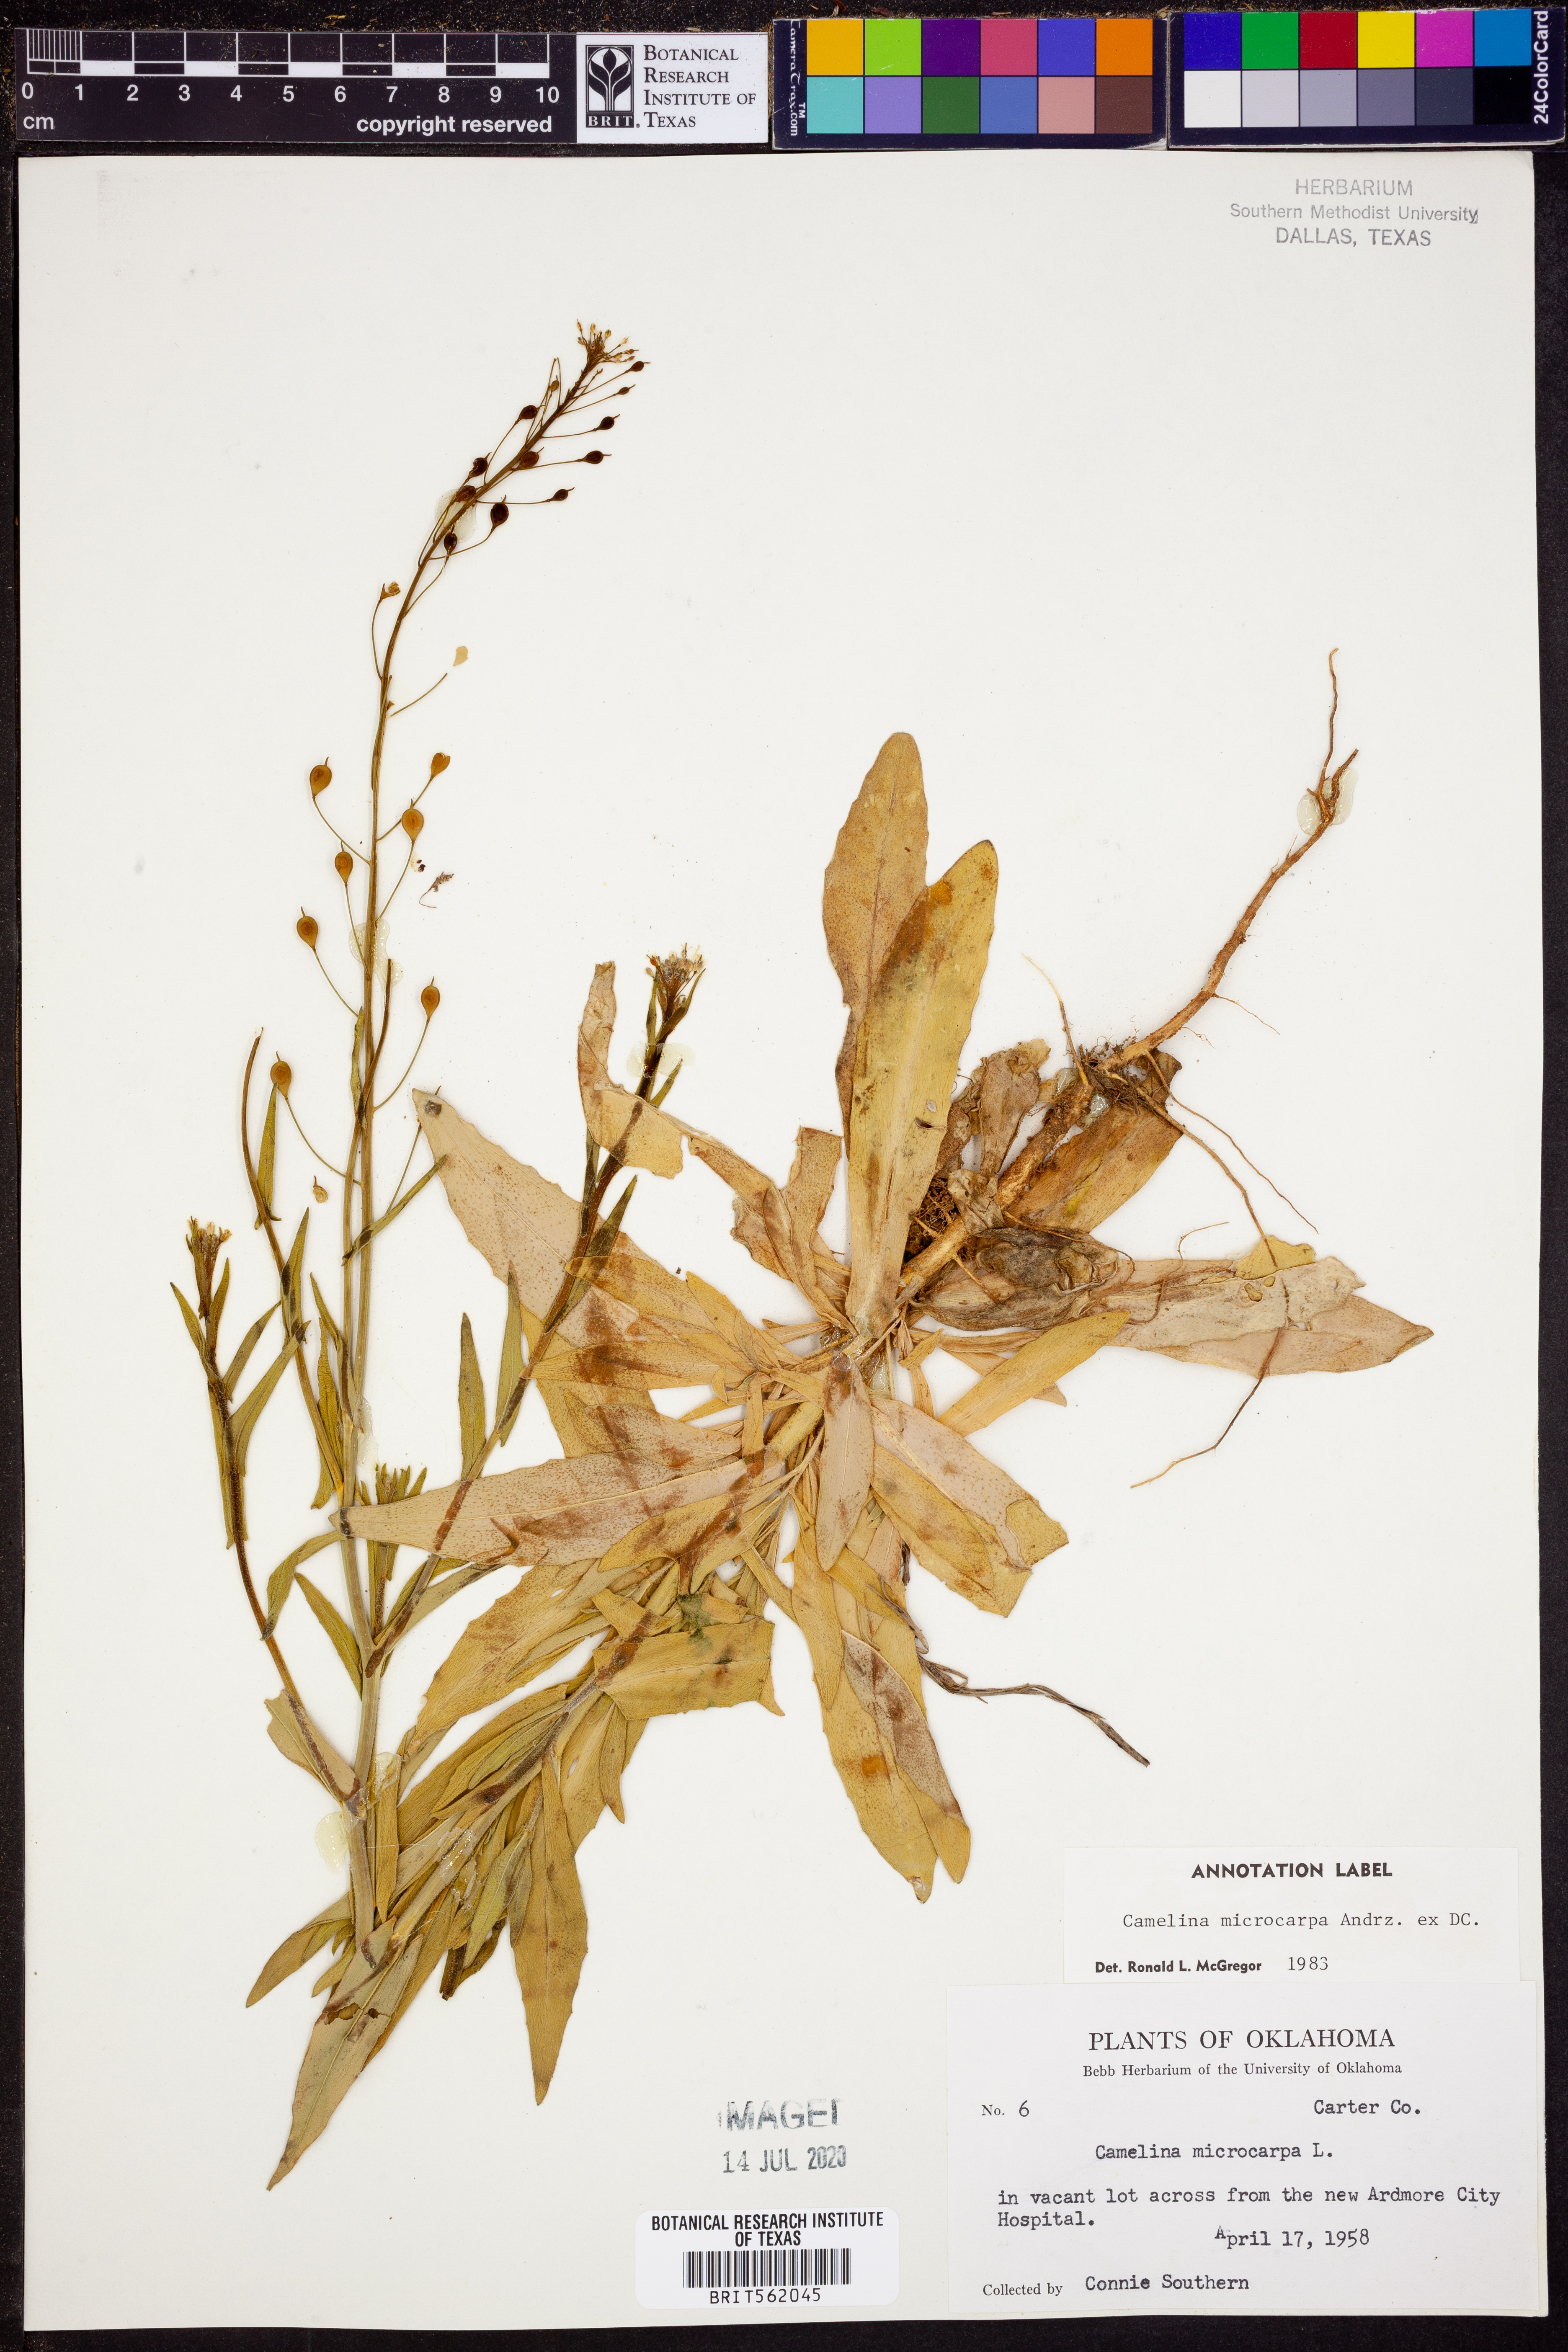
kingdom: Plantae
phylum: Tracheophyta
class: Magnoliopsida
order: Brassicales
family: Brassicaceae
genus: Camelina
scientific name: Camelina microcarpa
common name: Lesser gold-of-pleasure
